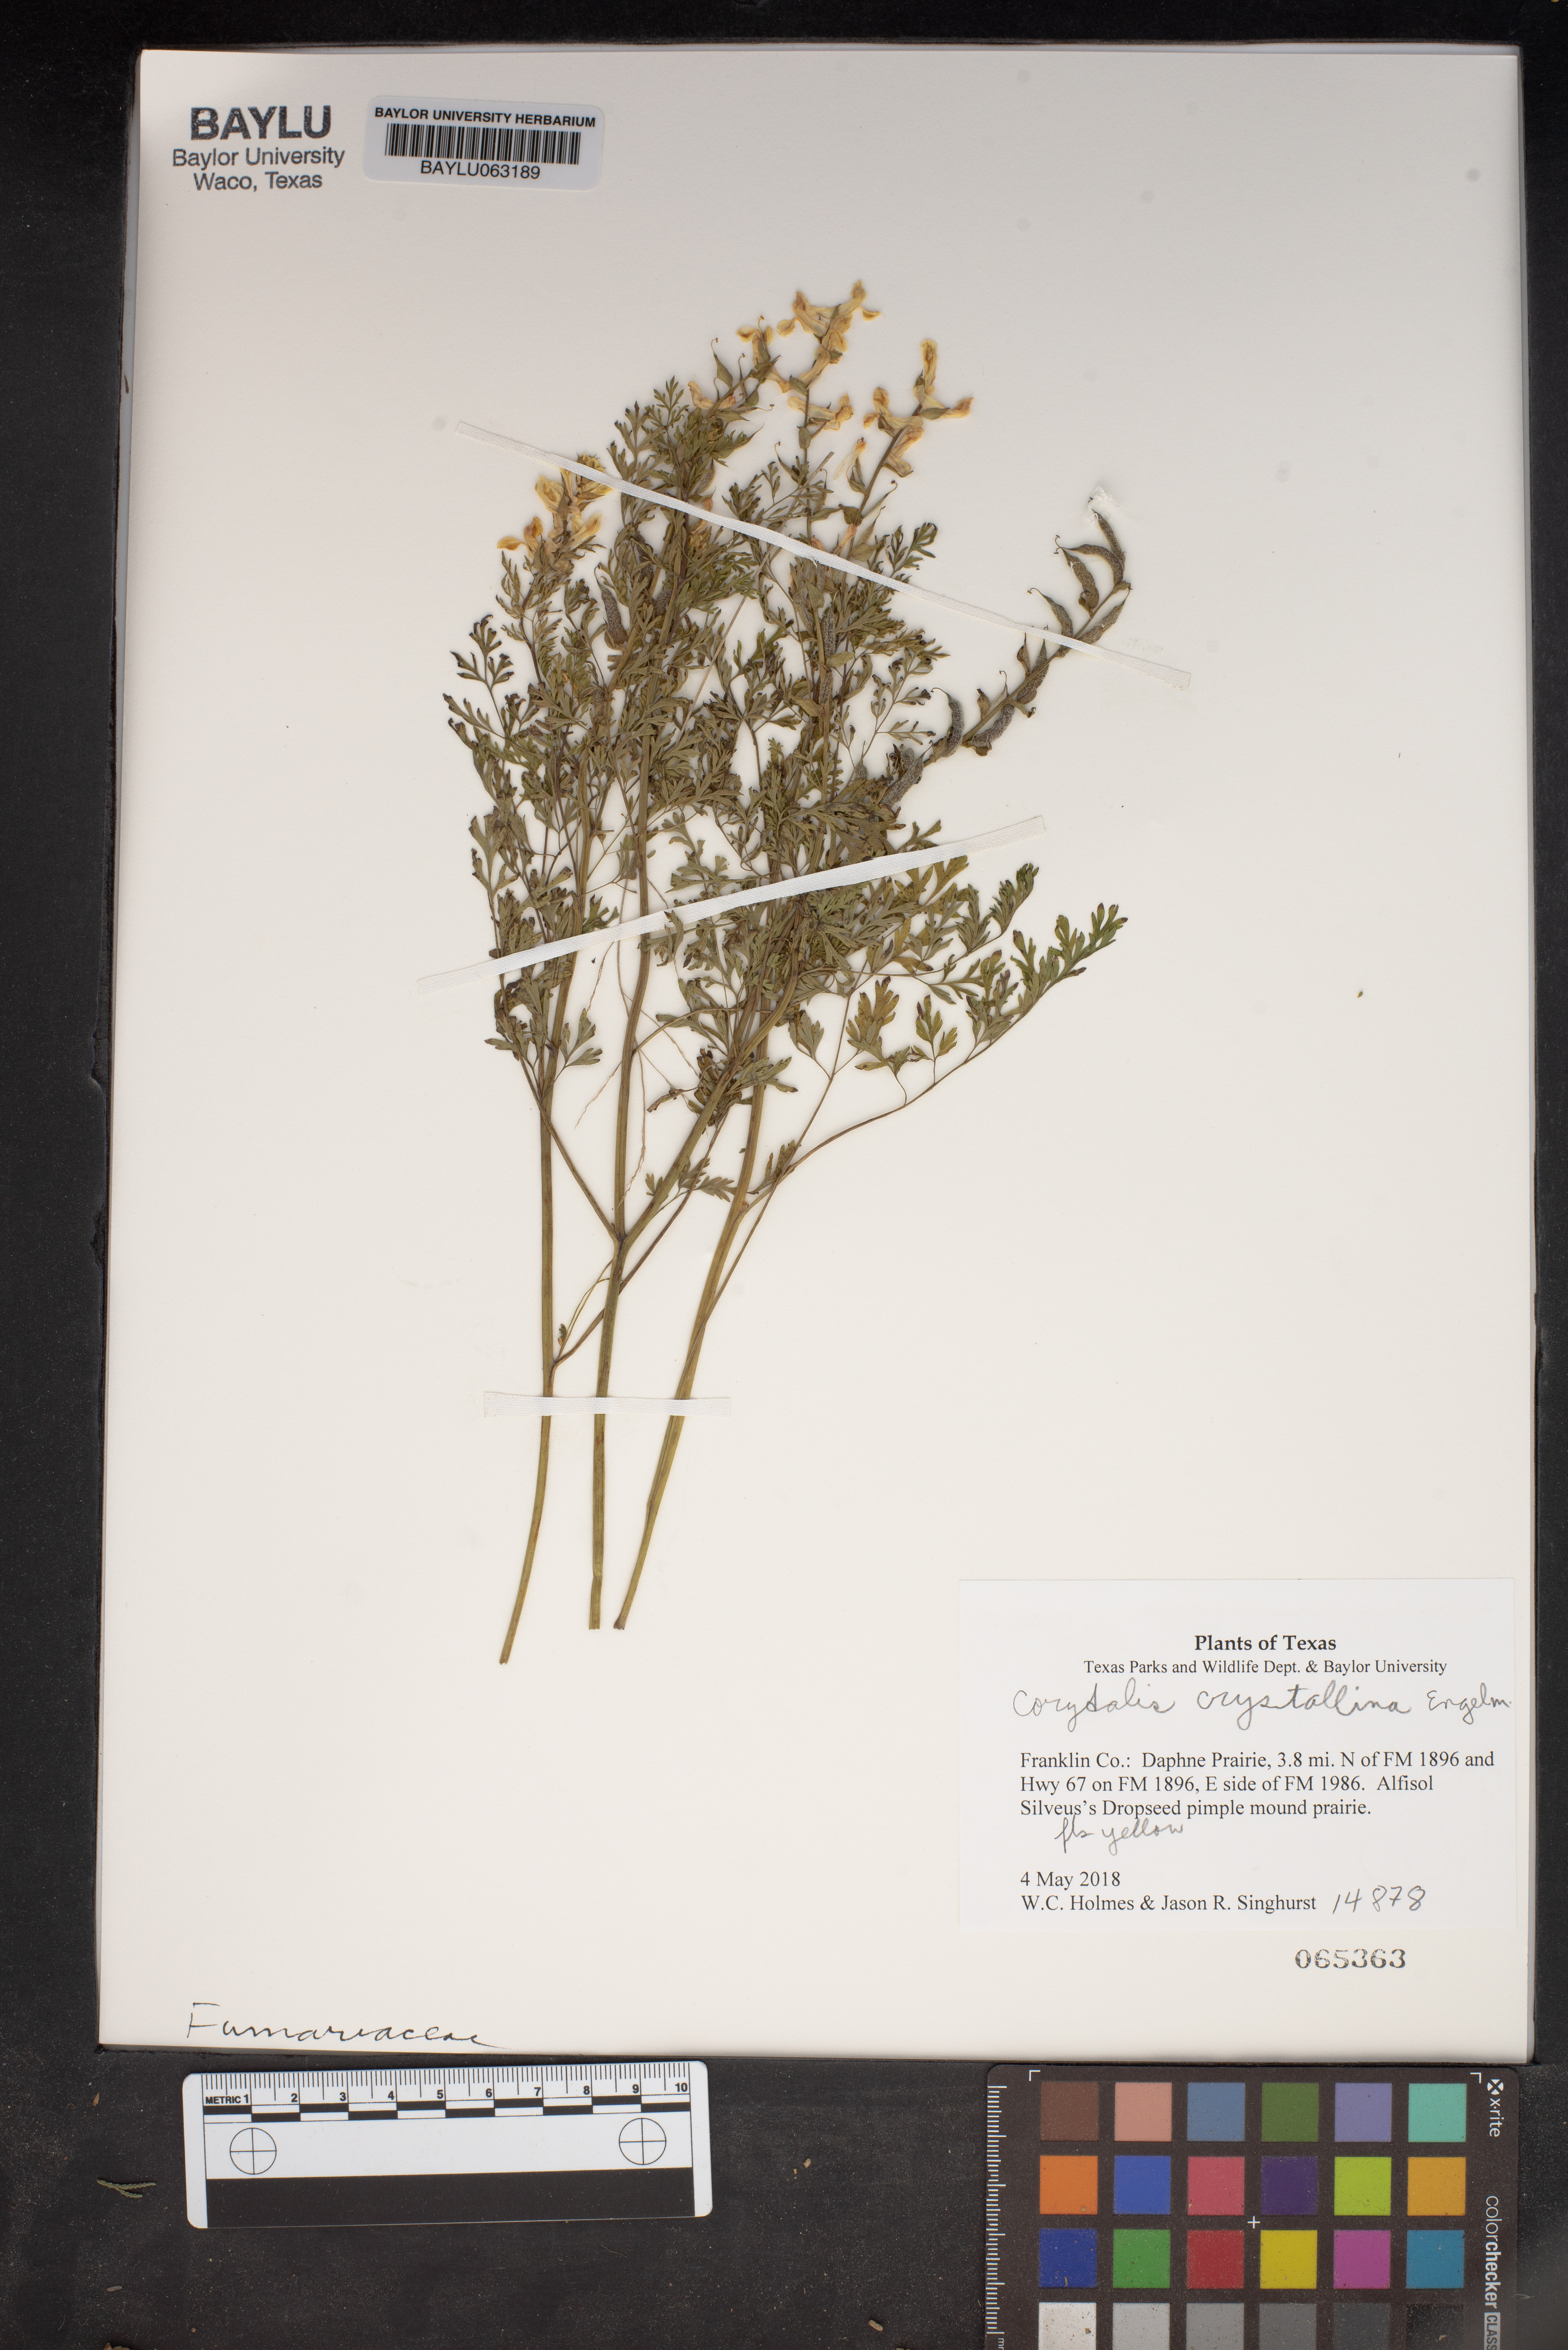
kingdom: Plantae
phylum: Tracheophyta
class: Magnoliopsida
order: Ranunculales
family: Papaveraceae
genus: Corydalis
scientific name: Corydalis crystallina
